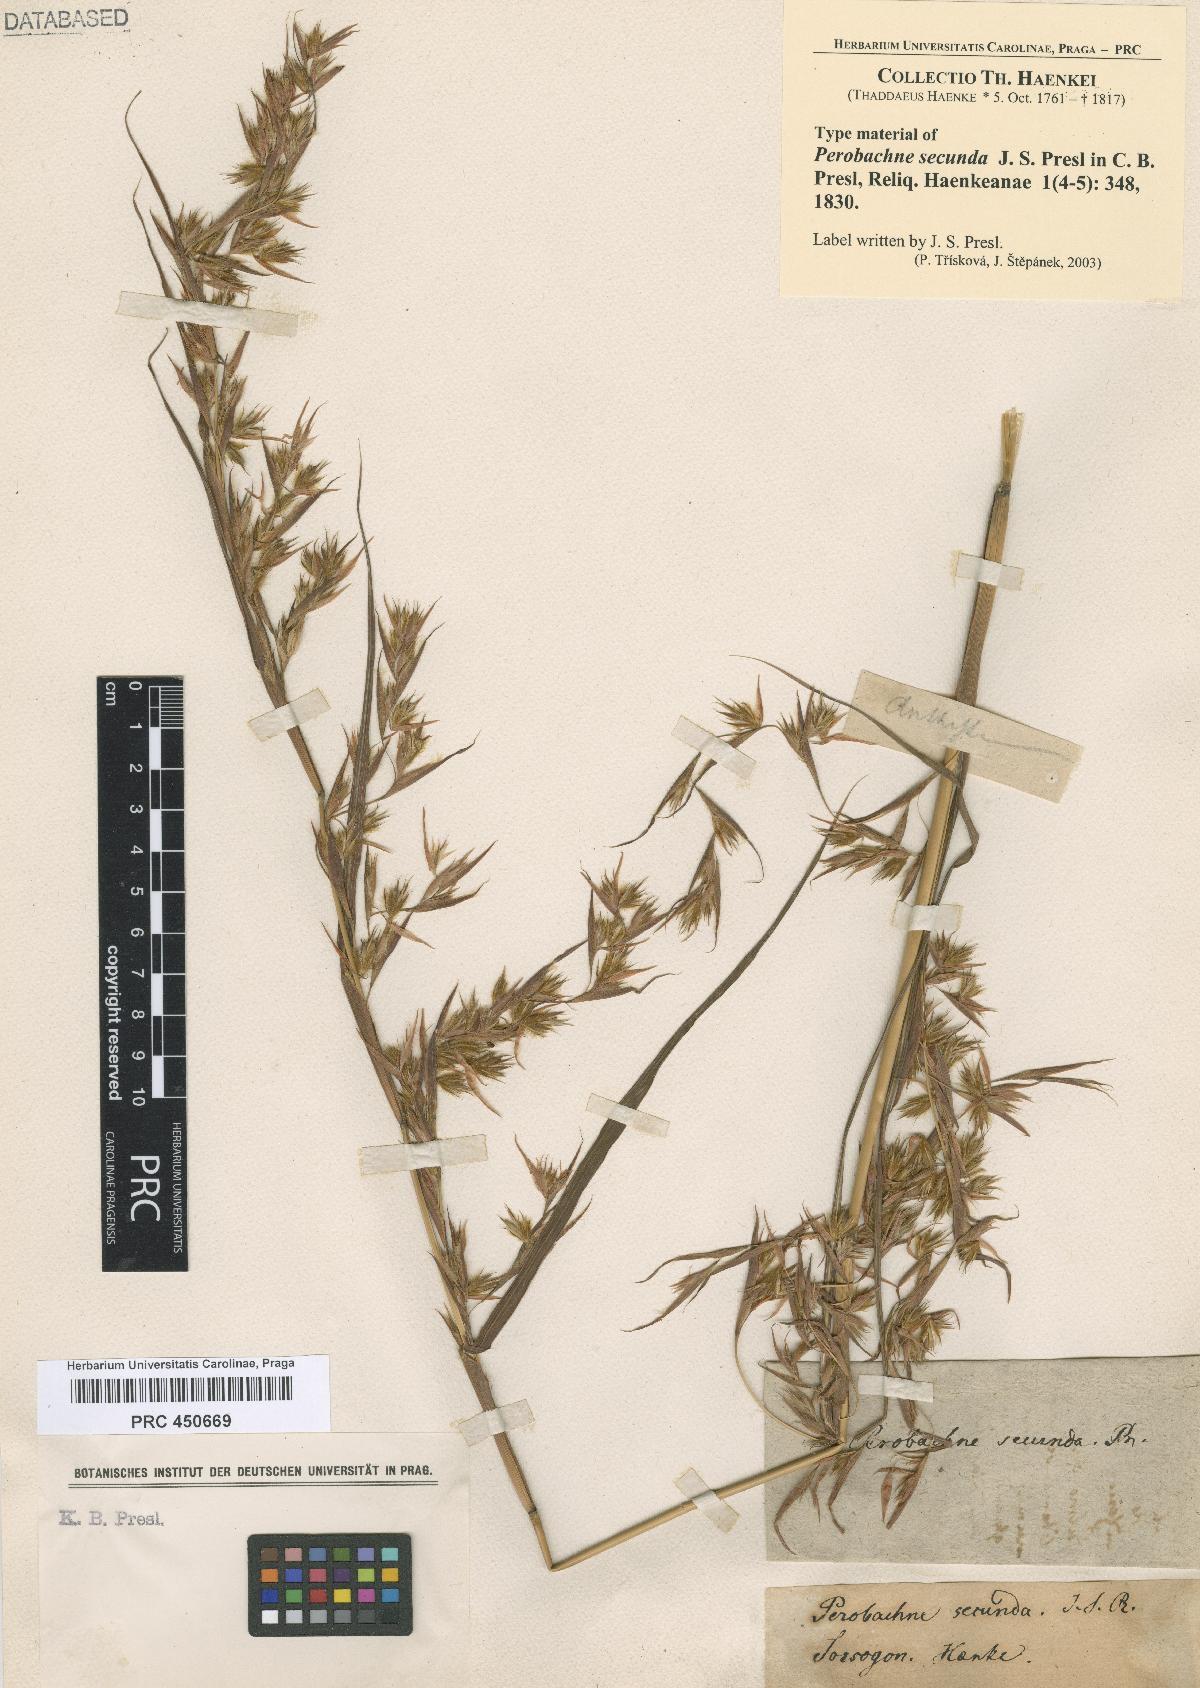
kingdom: Plantae
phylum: Tracheophyta
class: Liliopsida
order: Poales
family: Poaceae
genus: Themeda
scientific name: Themeda gigantea
